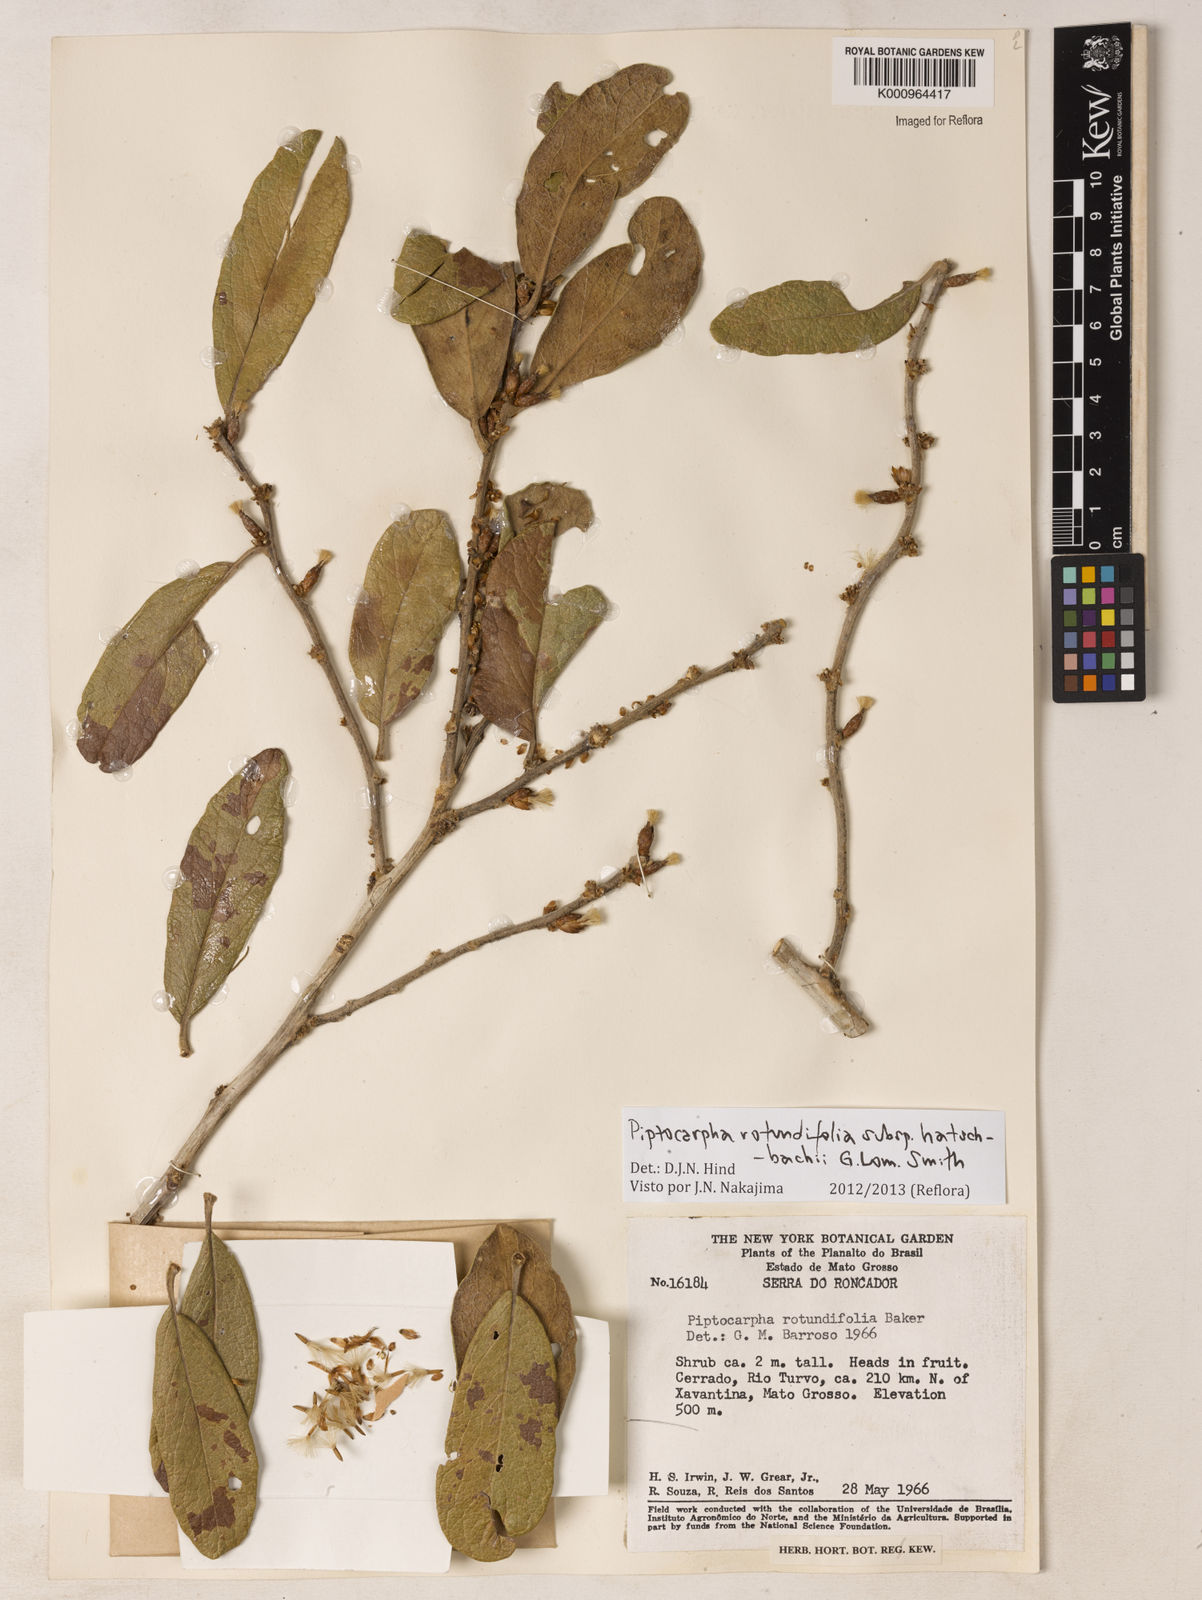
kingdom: Plantae
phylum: Tracheophyta
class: Magnoliopsida
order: Asterales
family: Asteraceae
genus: Piptocarpha
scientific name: Piptocarpha rotundifolia
